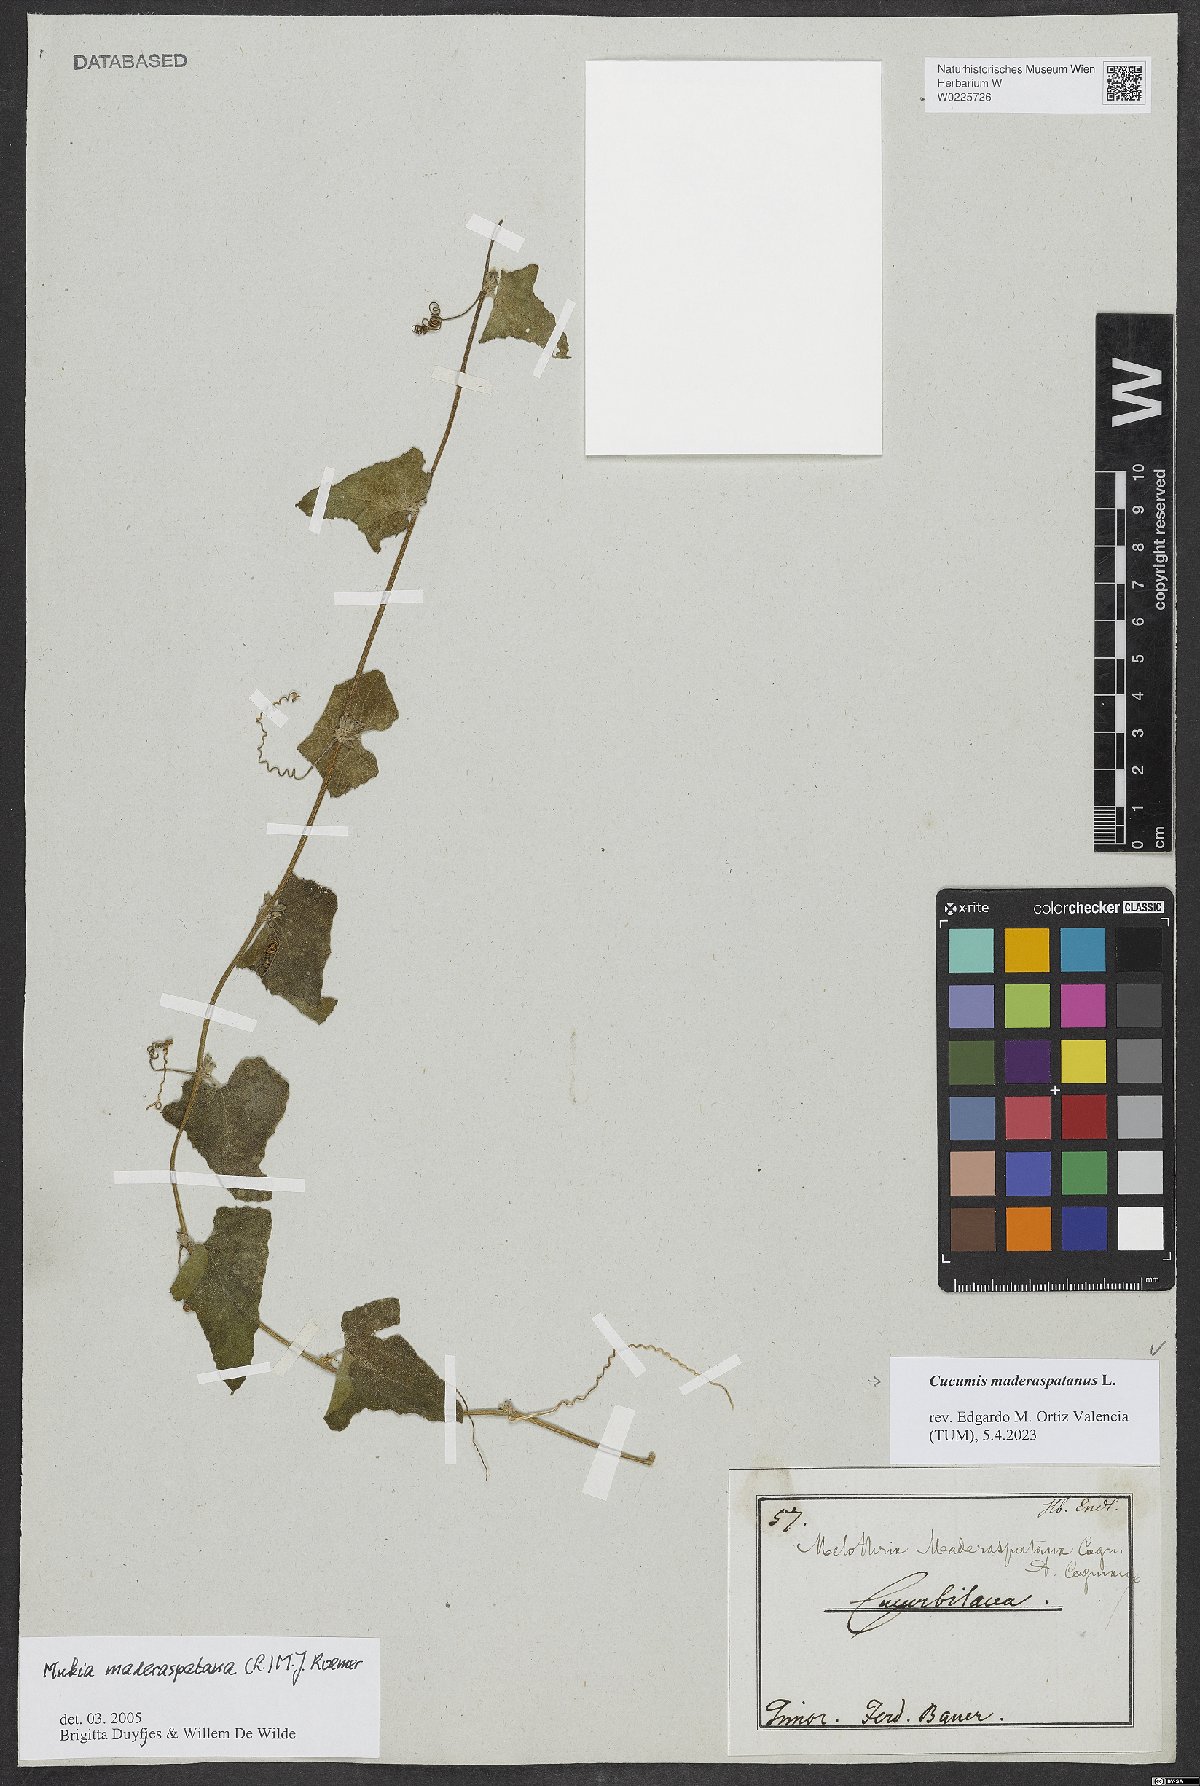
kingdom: Plantae
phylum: Tracheophyta
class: Magnoliopsida
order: Cucurbitales
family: Cucurbitaceae
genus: Cucumis
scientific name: Cucumis maderaspatanus
